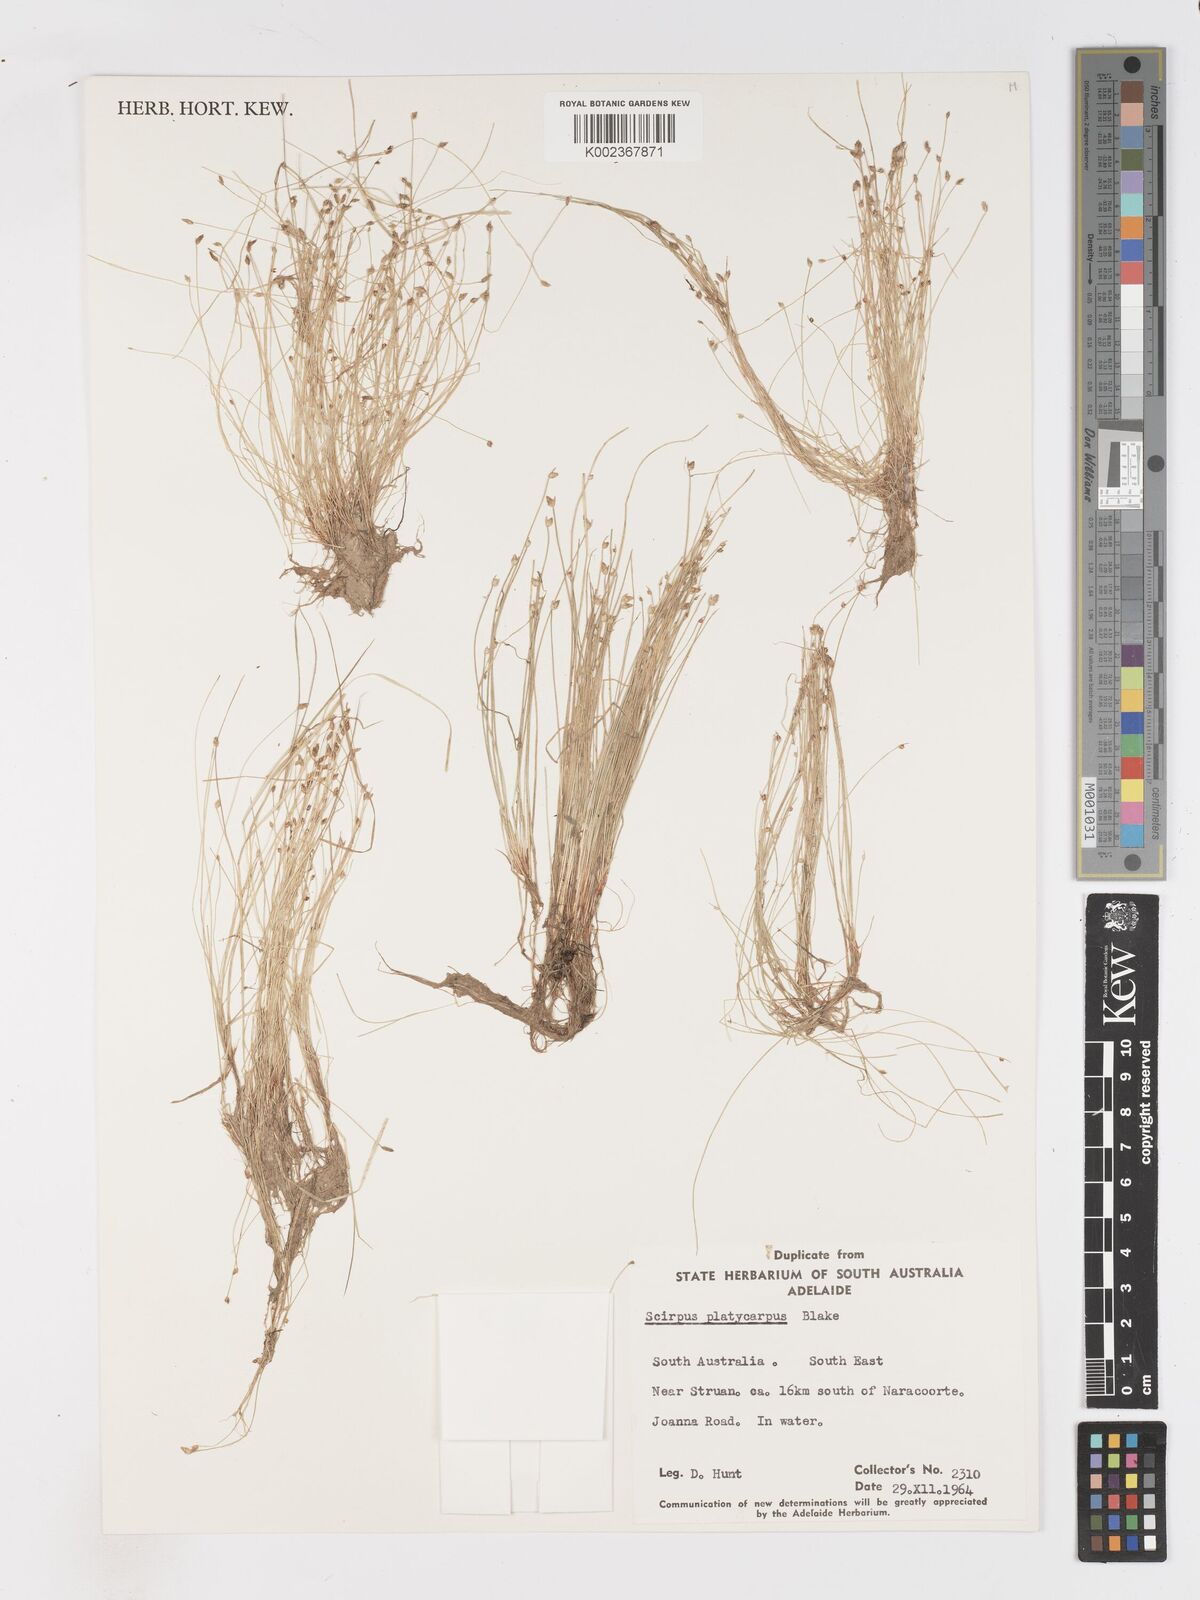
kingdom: Plantae
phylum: Tracheophyta
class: Liliopsida
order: Poales
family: Cyperaceae
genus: Isolepis
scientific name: Isolepis cernua
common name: Slender club-rush
